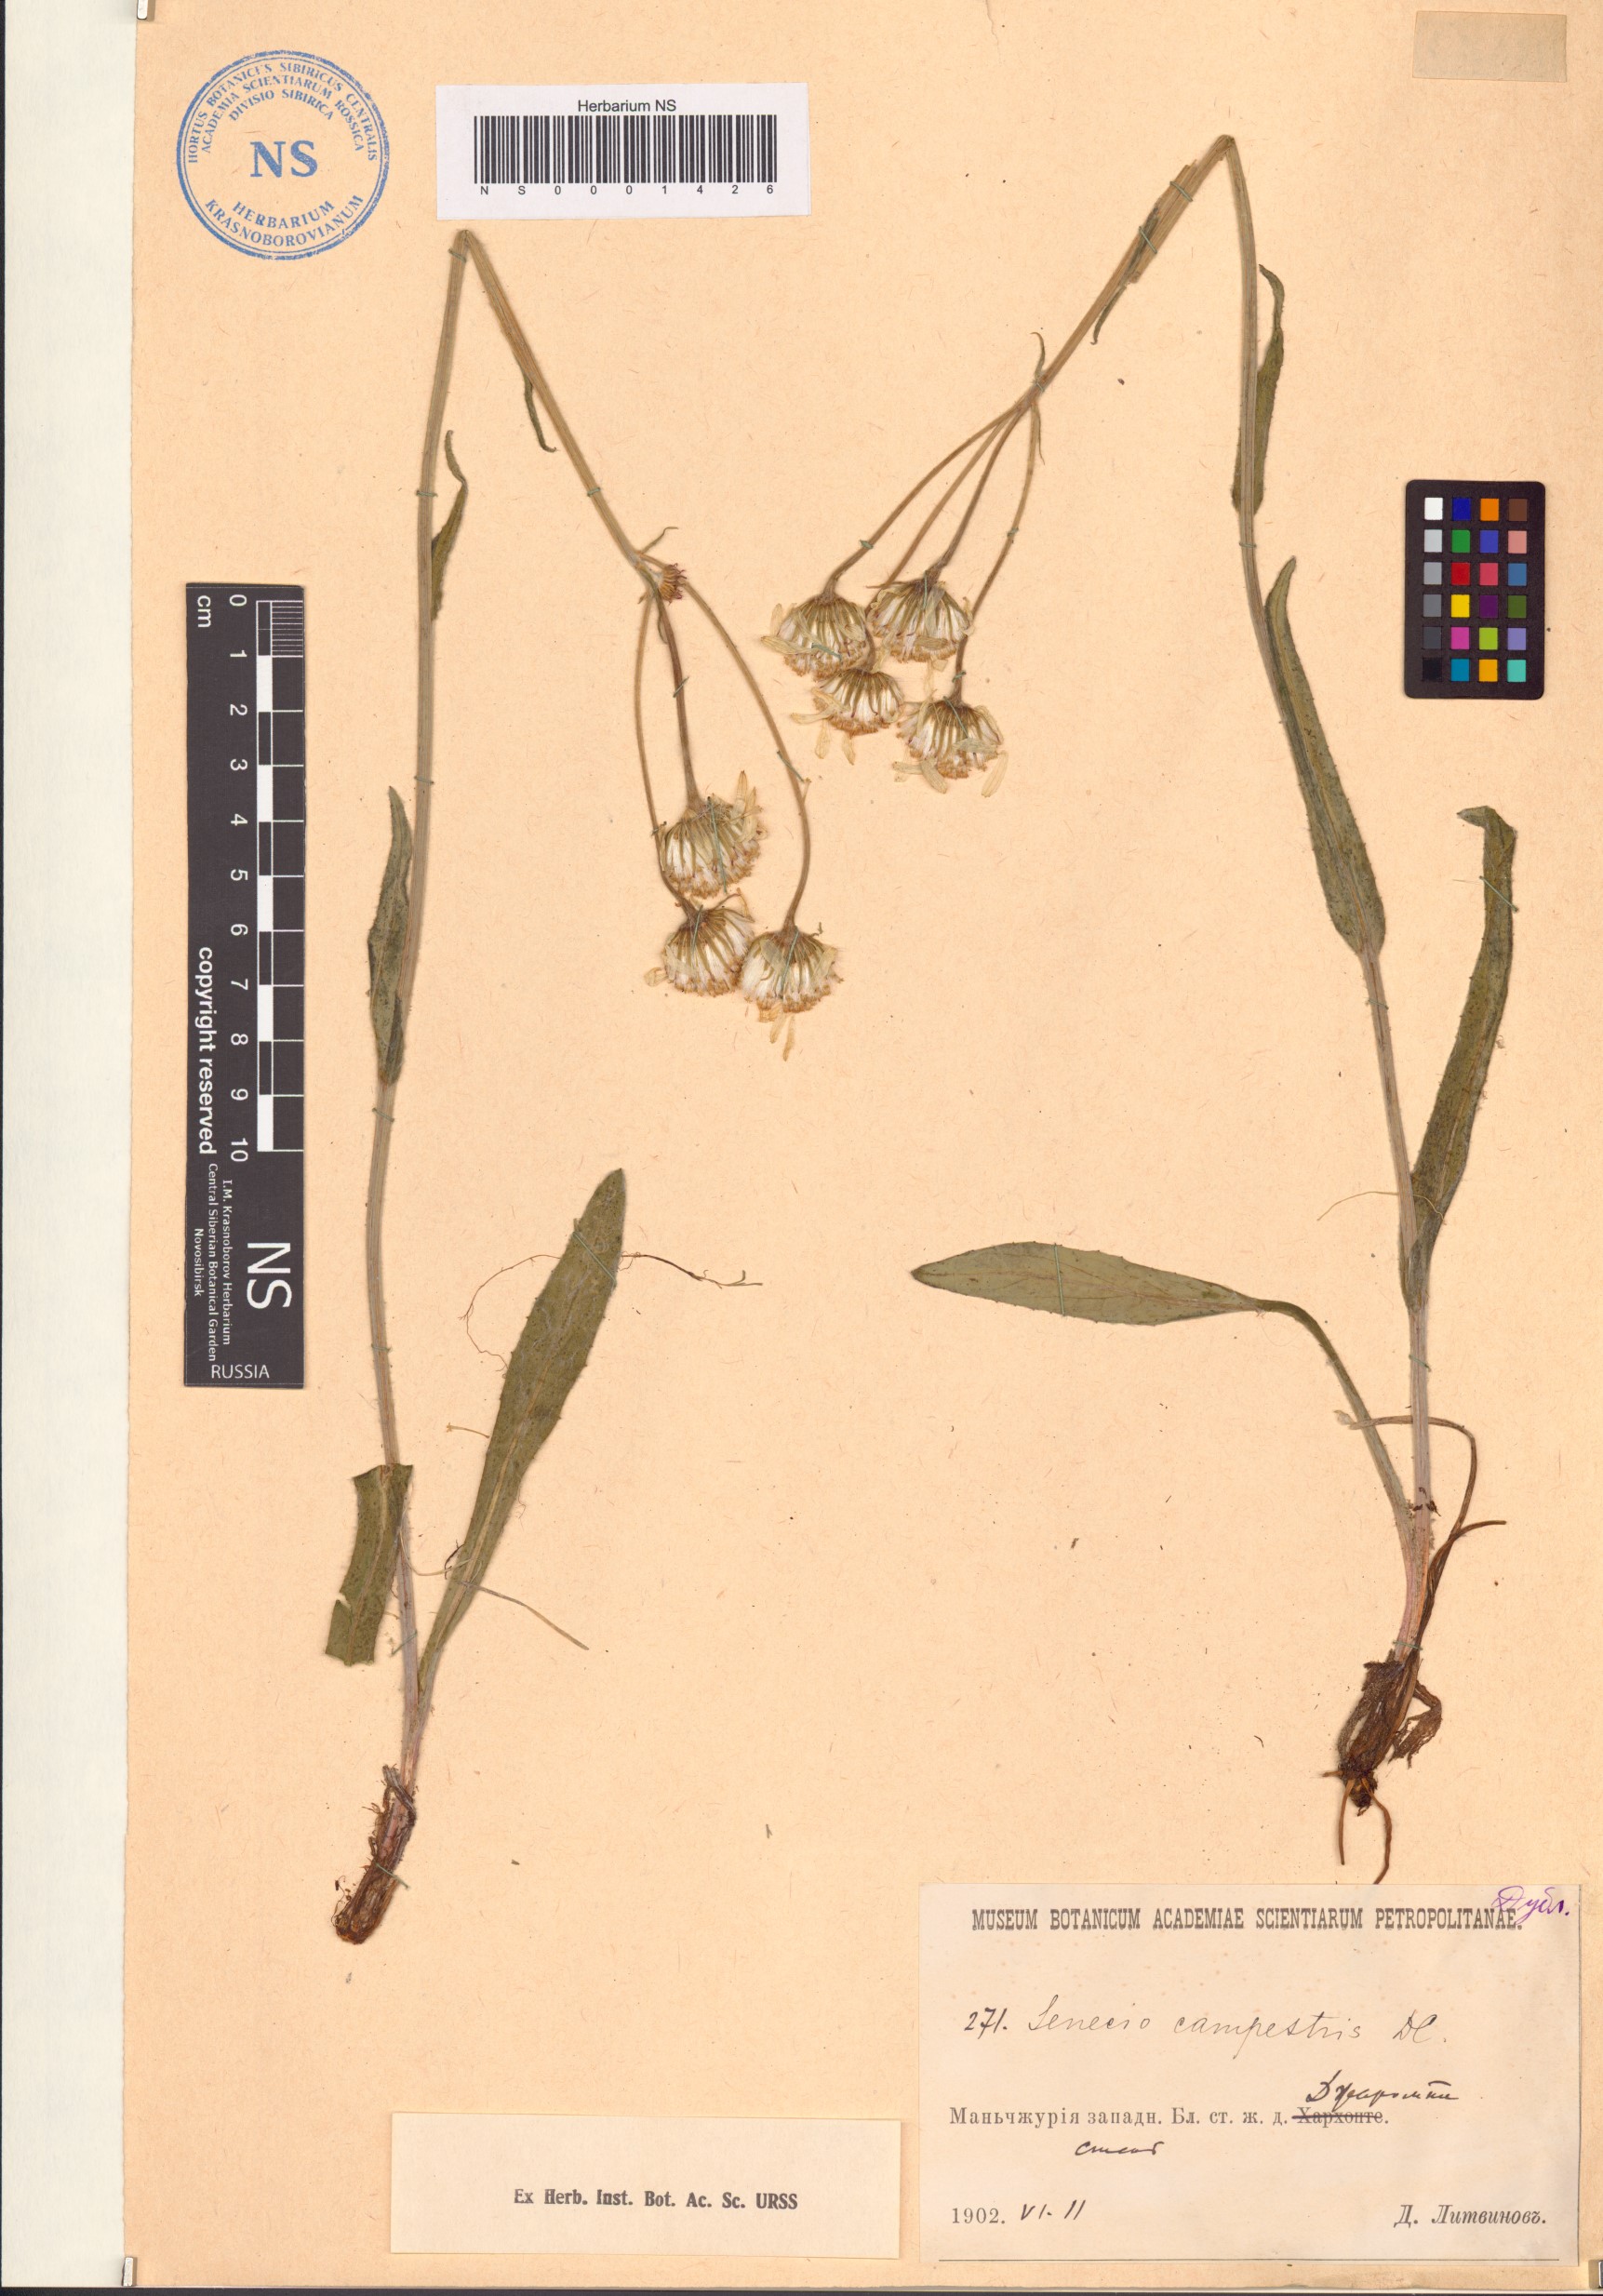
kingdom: Plantae
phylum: Tracheophyta
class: Magnoliopsida
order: Asterales
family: Asteraceae
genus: Tephroseris
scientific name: Tephroseris integrifolia
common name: Field fleawort
